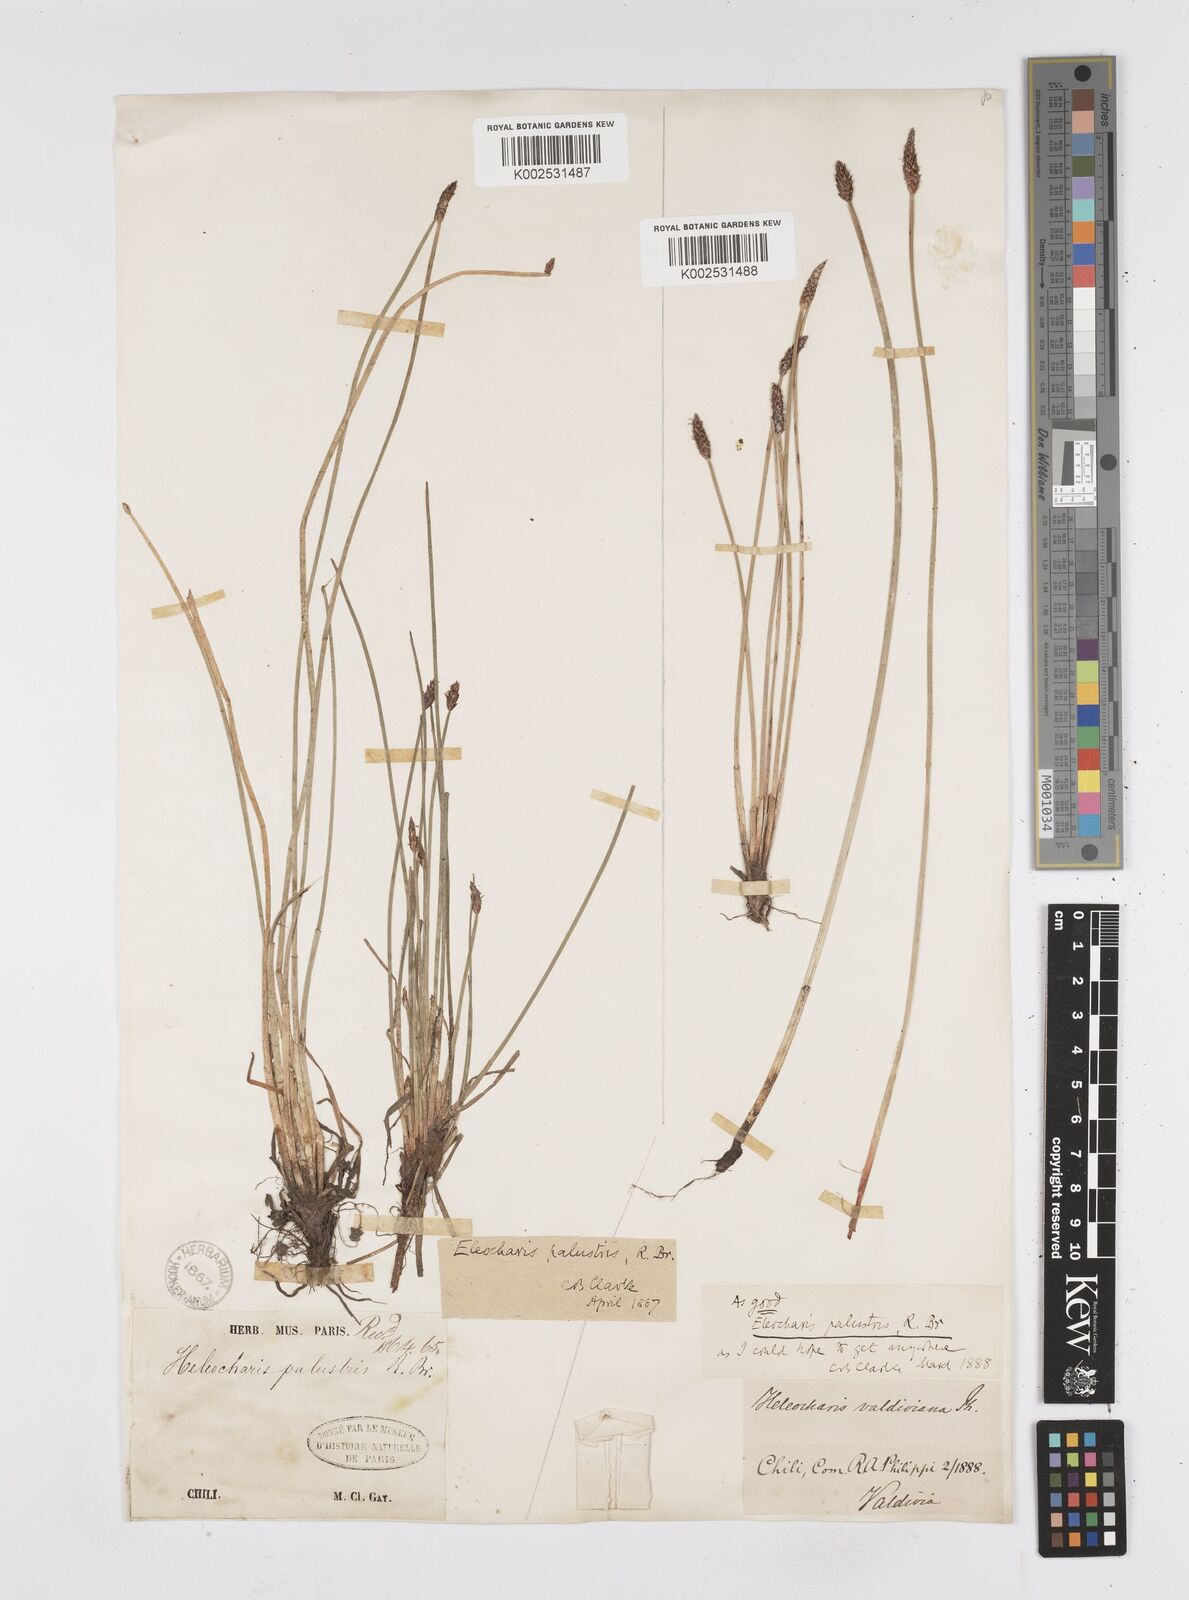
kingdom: Plantae
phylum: Tracheophyta
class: Liliopsida
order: Poales
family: Cyperaceae
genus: Eleocharis
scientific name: Eleocharis palustris
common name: Common spike-rush
